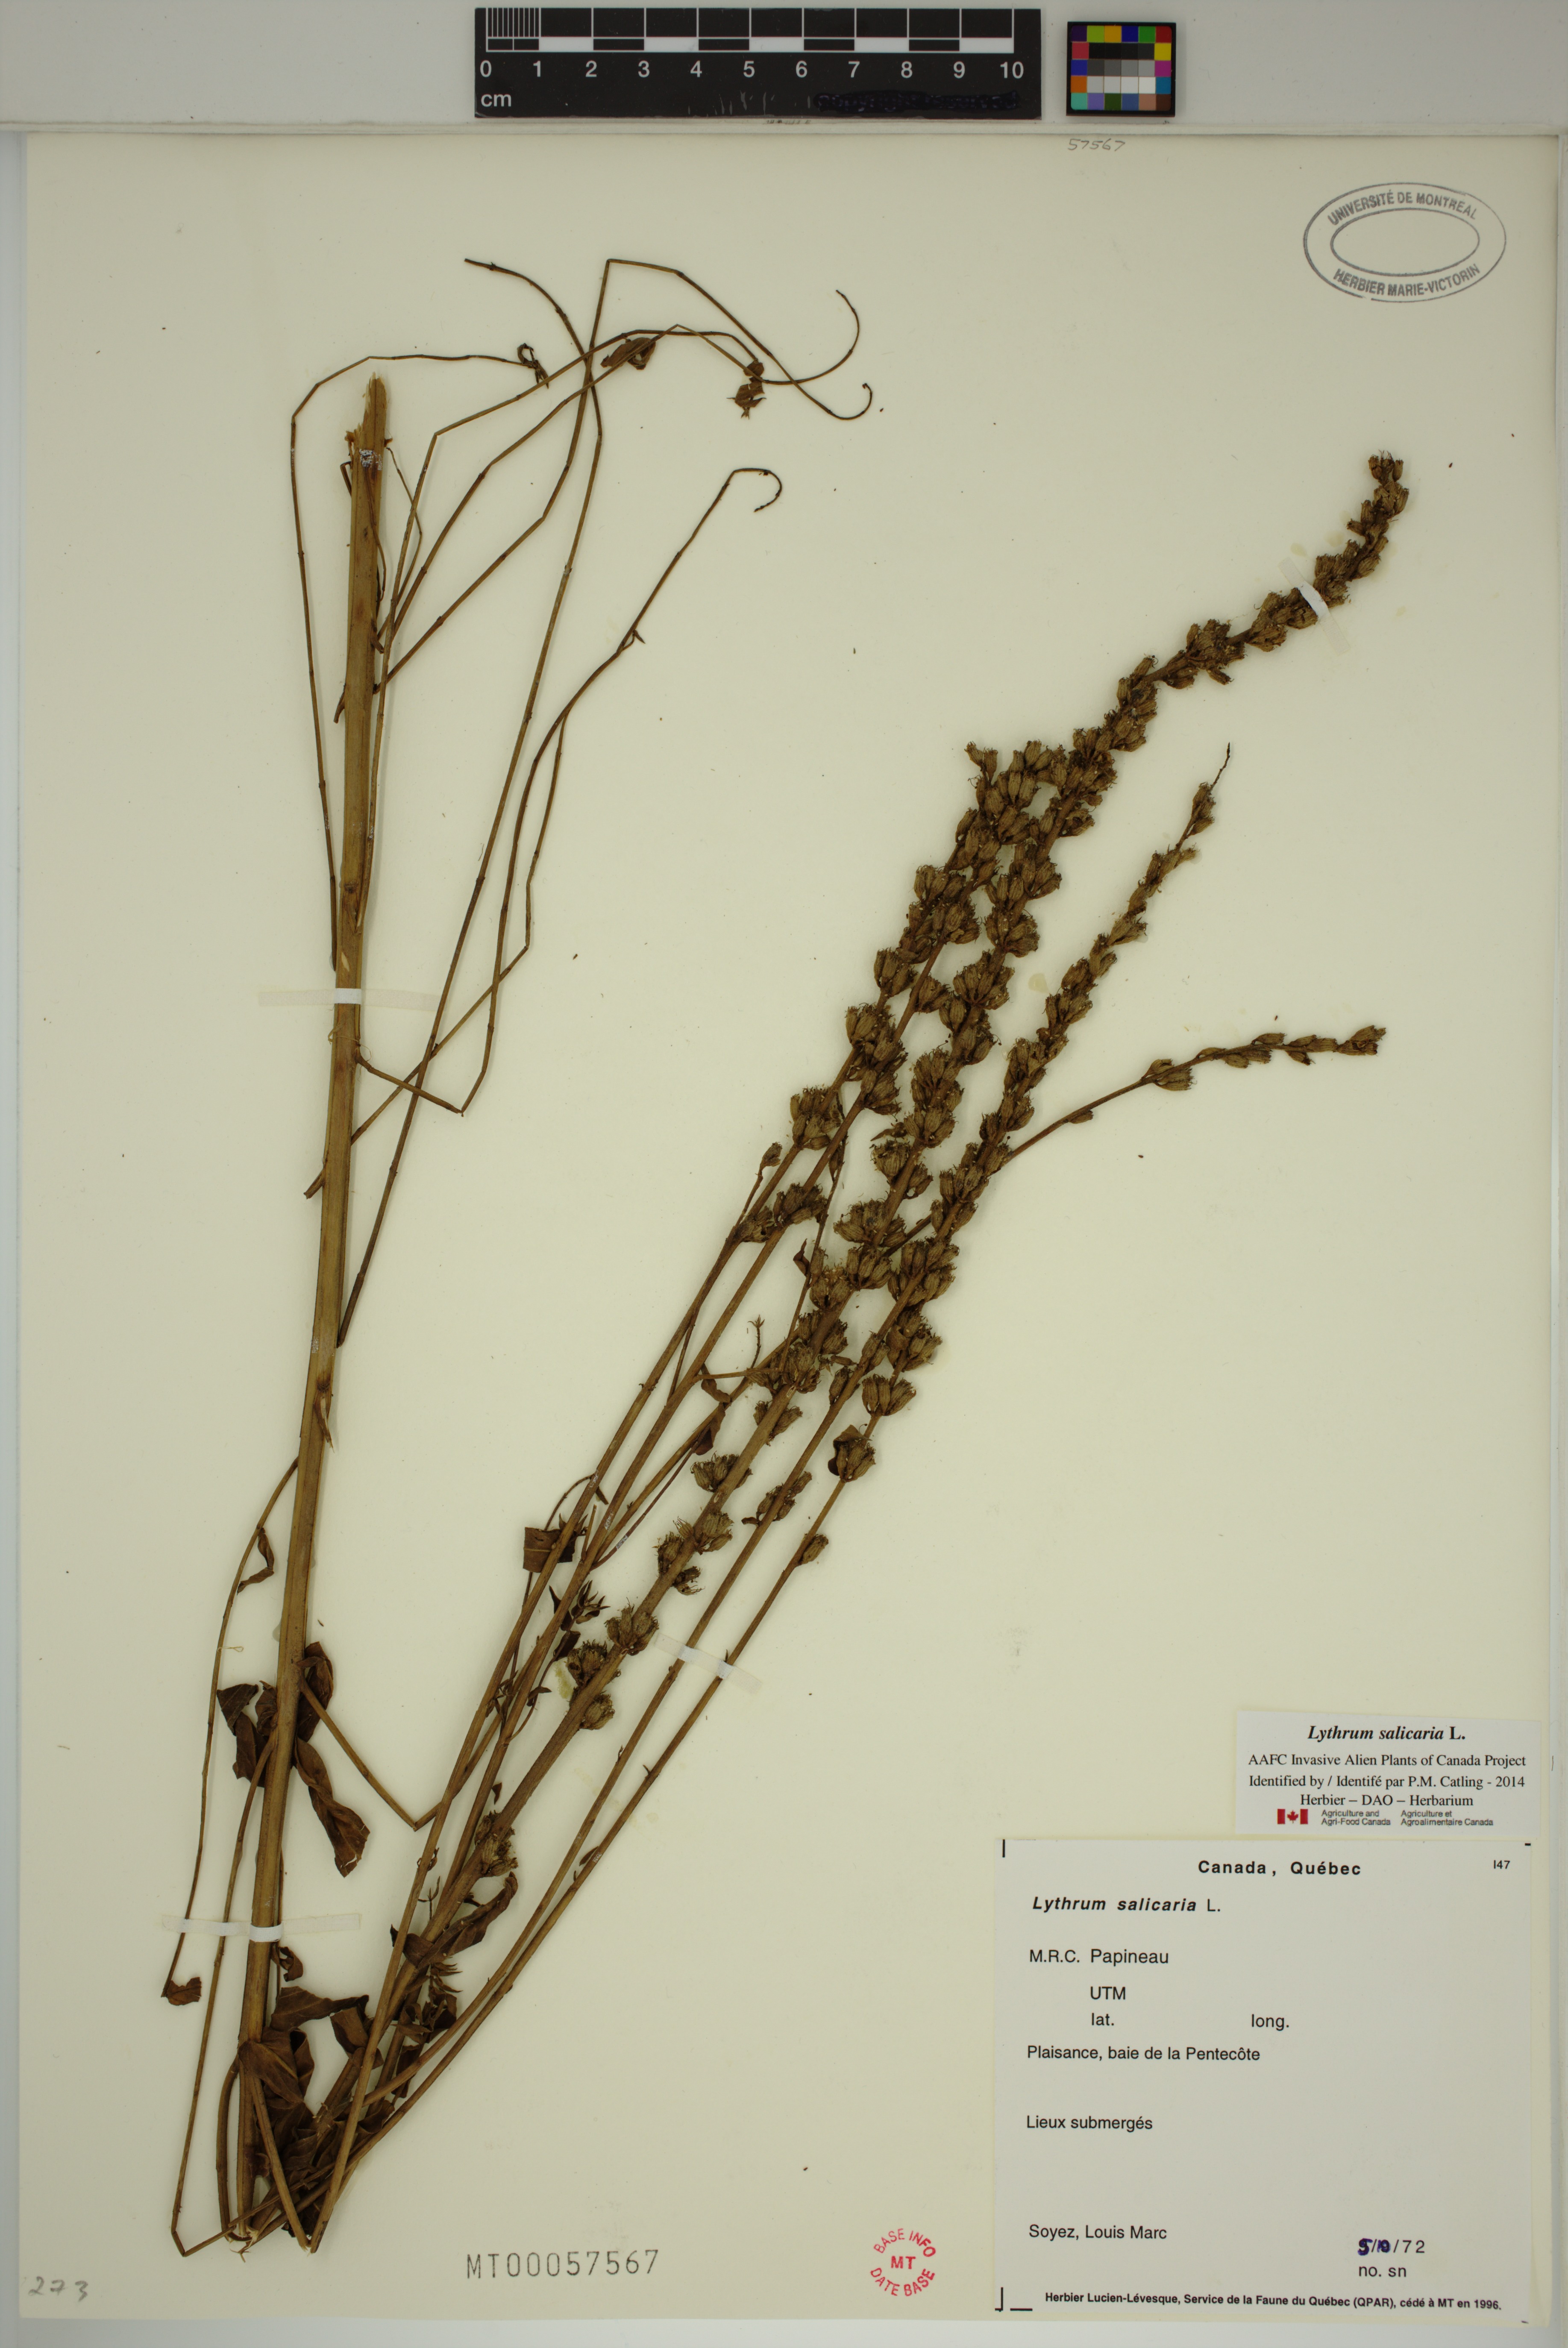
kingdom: Plantae
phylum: Tracheophyta
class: Magnoliopsida
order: Myrtales
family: Lythraceae
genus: Lythrum
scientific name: Lythrum salicaria
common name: Purple loosestrife
